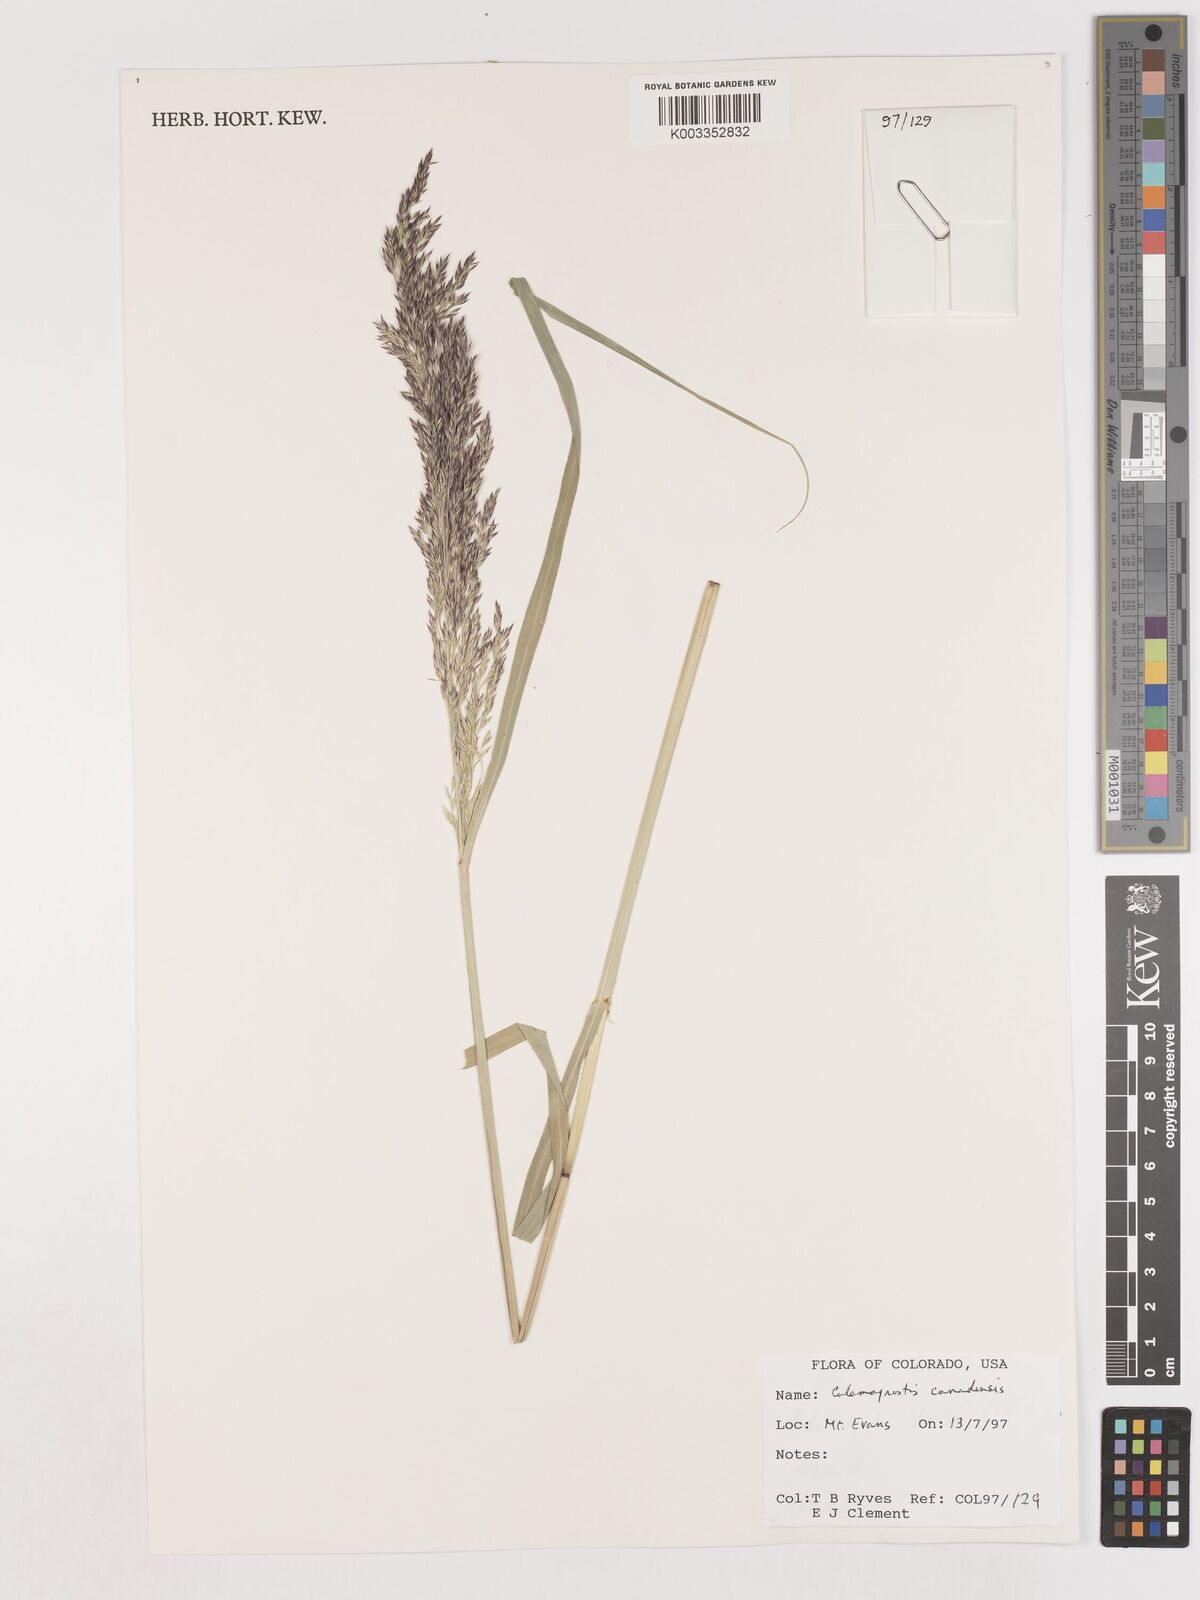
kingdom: Plantae
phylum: Tracheophyta
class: Liliopsida
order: Poales
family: Poaceae
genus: Calamagrostis
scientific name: Calamagrostis canadensis
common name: Canada bluejoint
